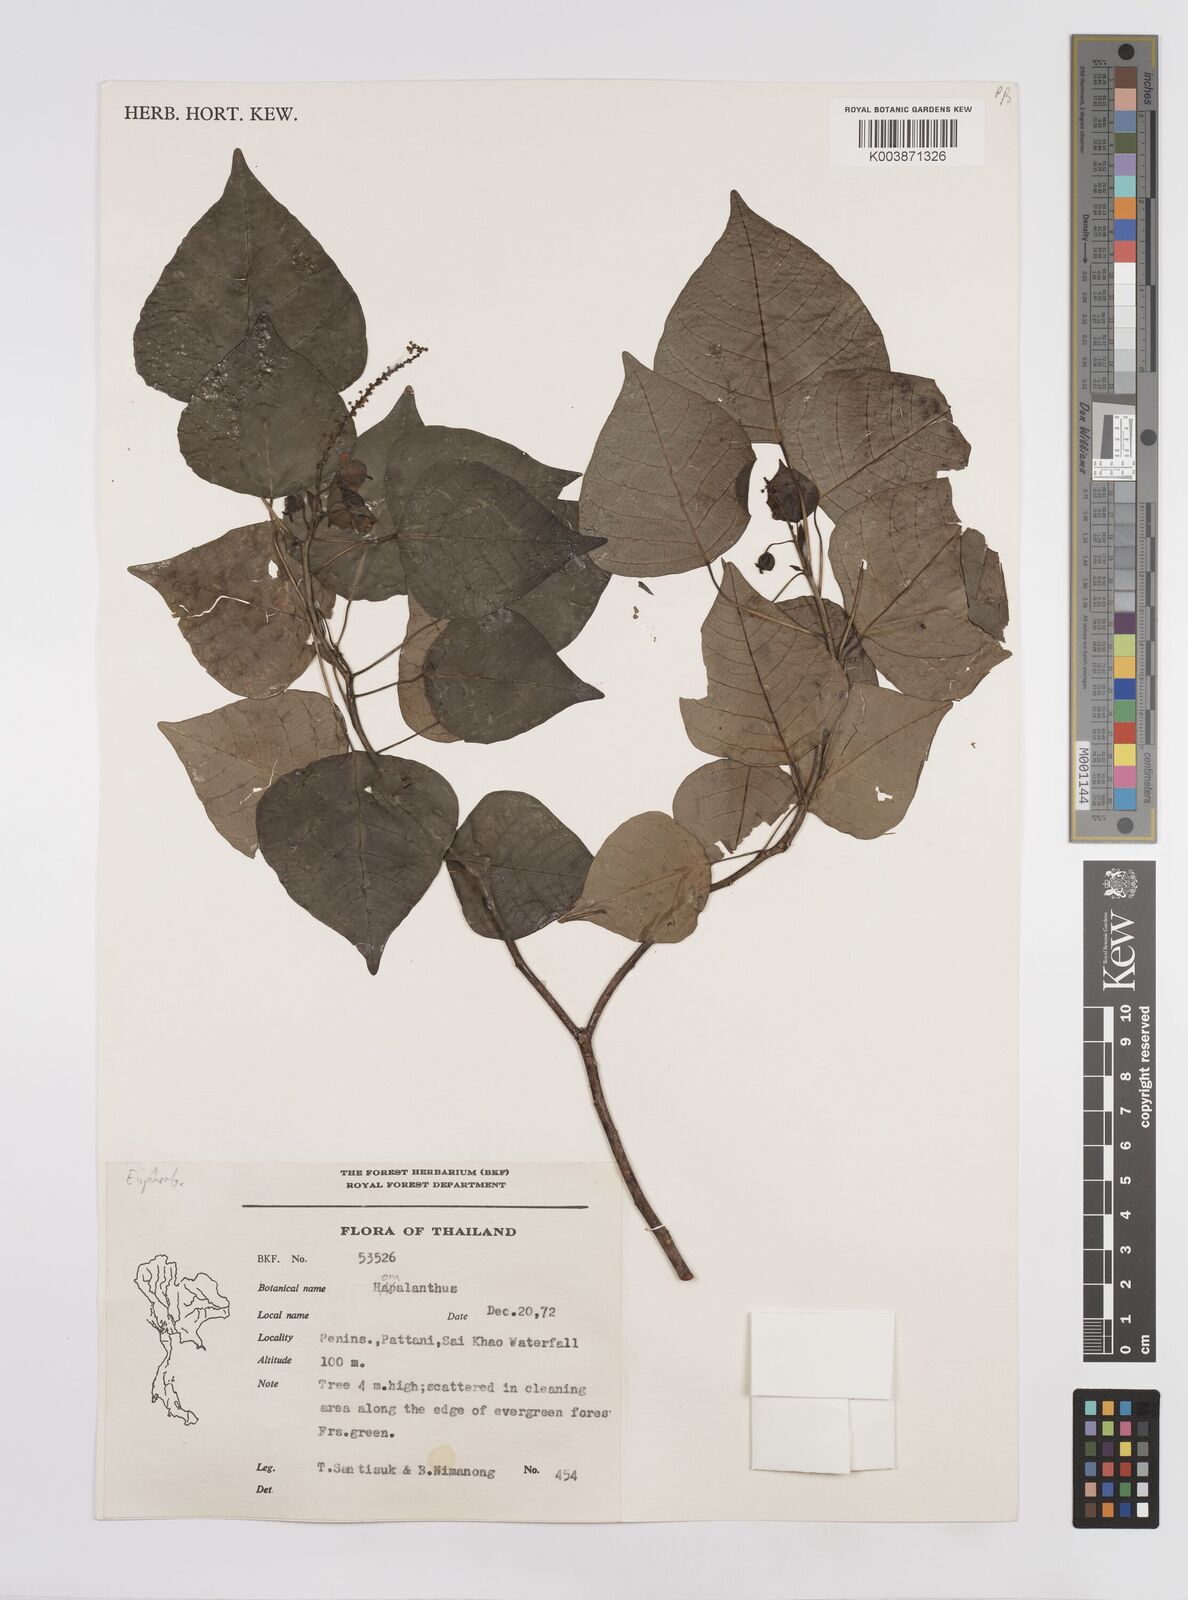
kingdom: Plantae
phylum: Tracheophyta
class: Magnoliopsida
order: Malpighiales
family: Euphorbiaceae
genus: Homalanthus
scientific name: Homalanthus populneus
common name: Spurge
